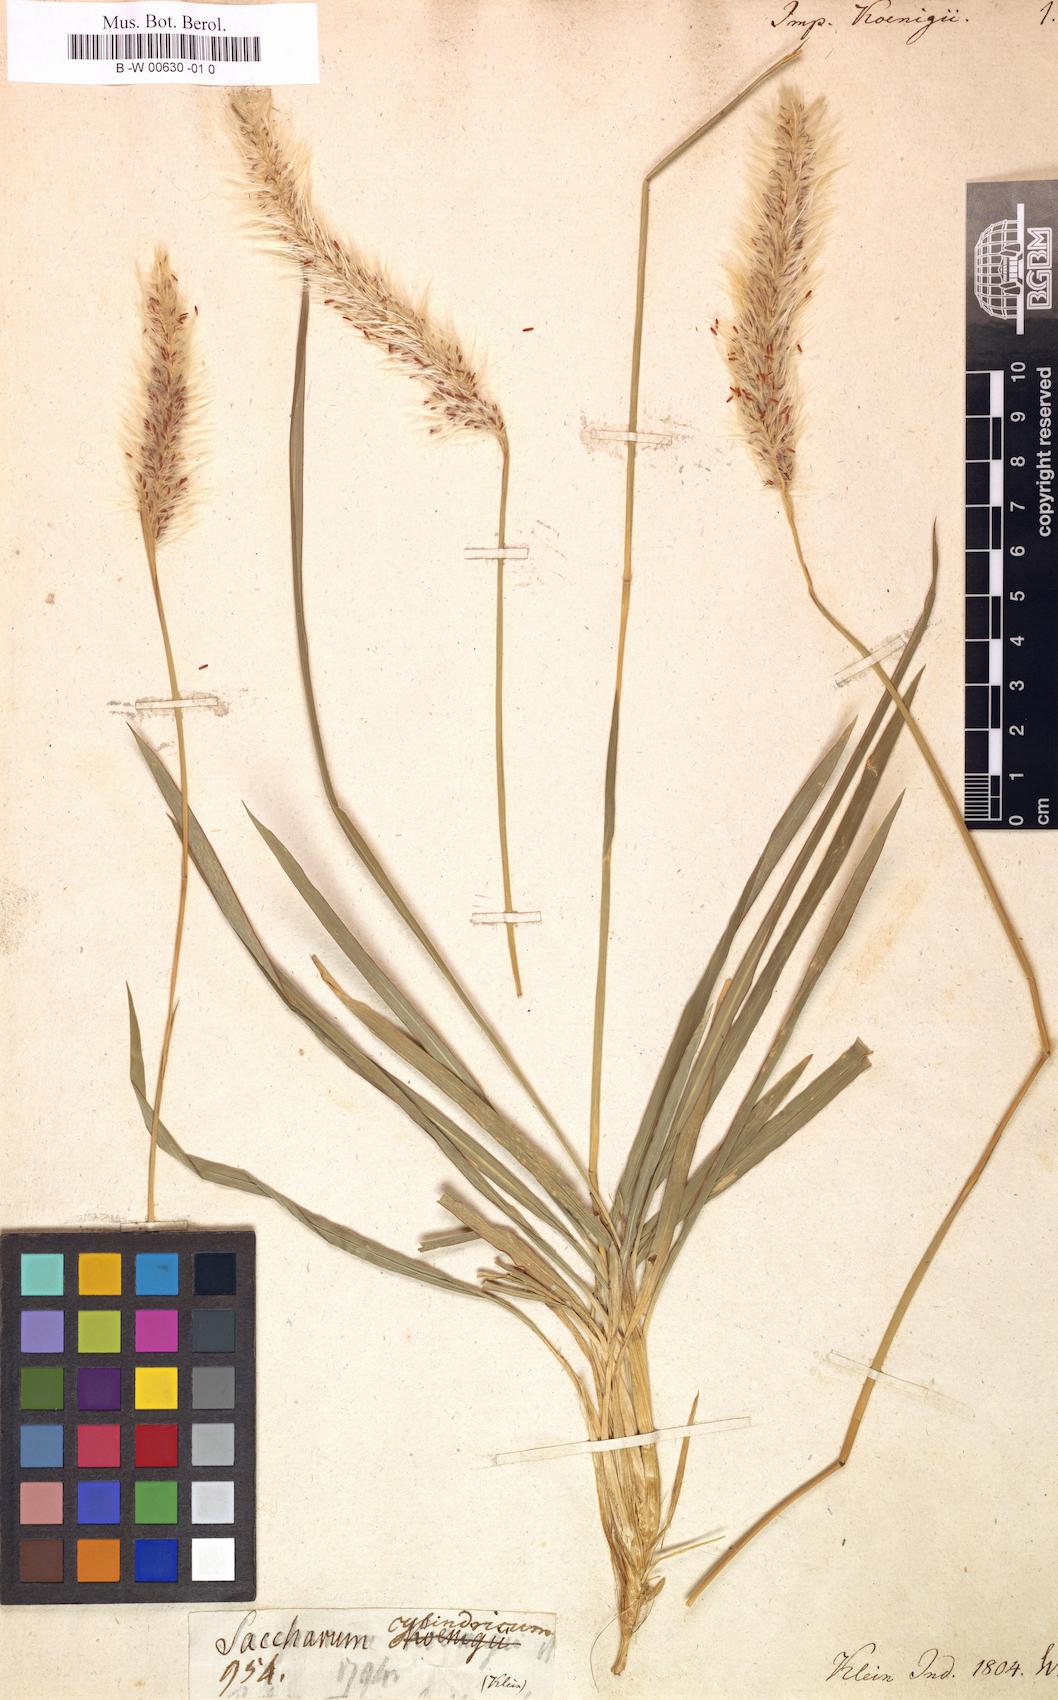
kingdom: Plantae
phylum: Tracheophyta
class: Liliopsida
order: Poales
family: Poaceae
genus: Imperata
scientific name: Imperata cylindrica
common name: Cogongrass
